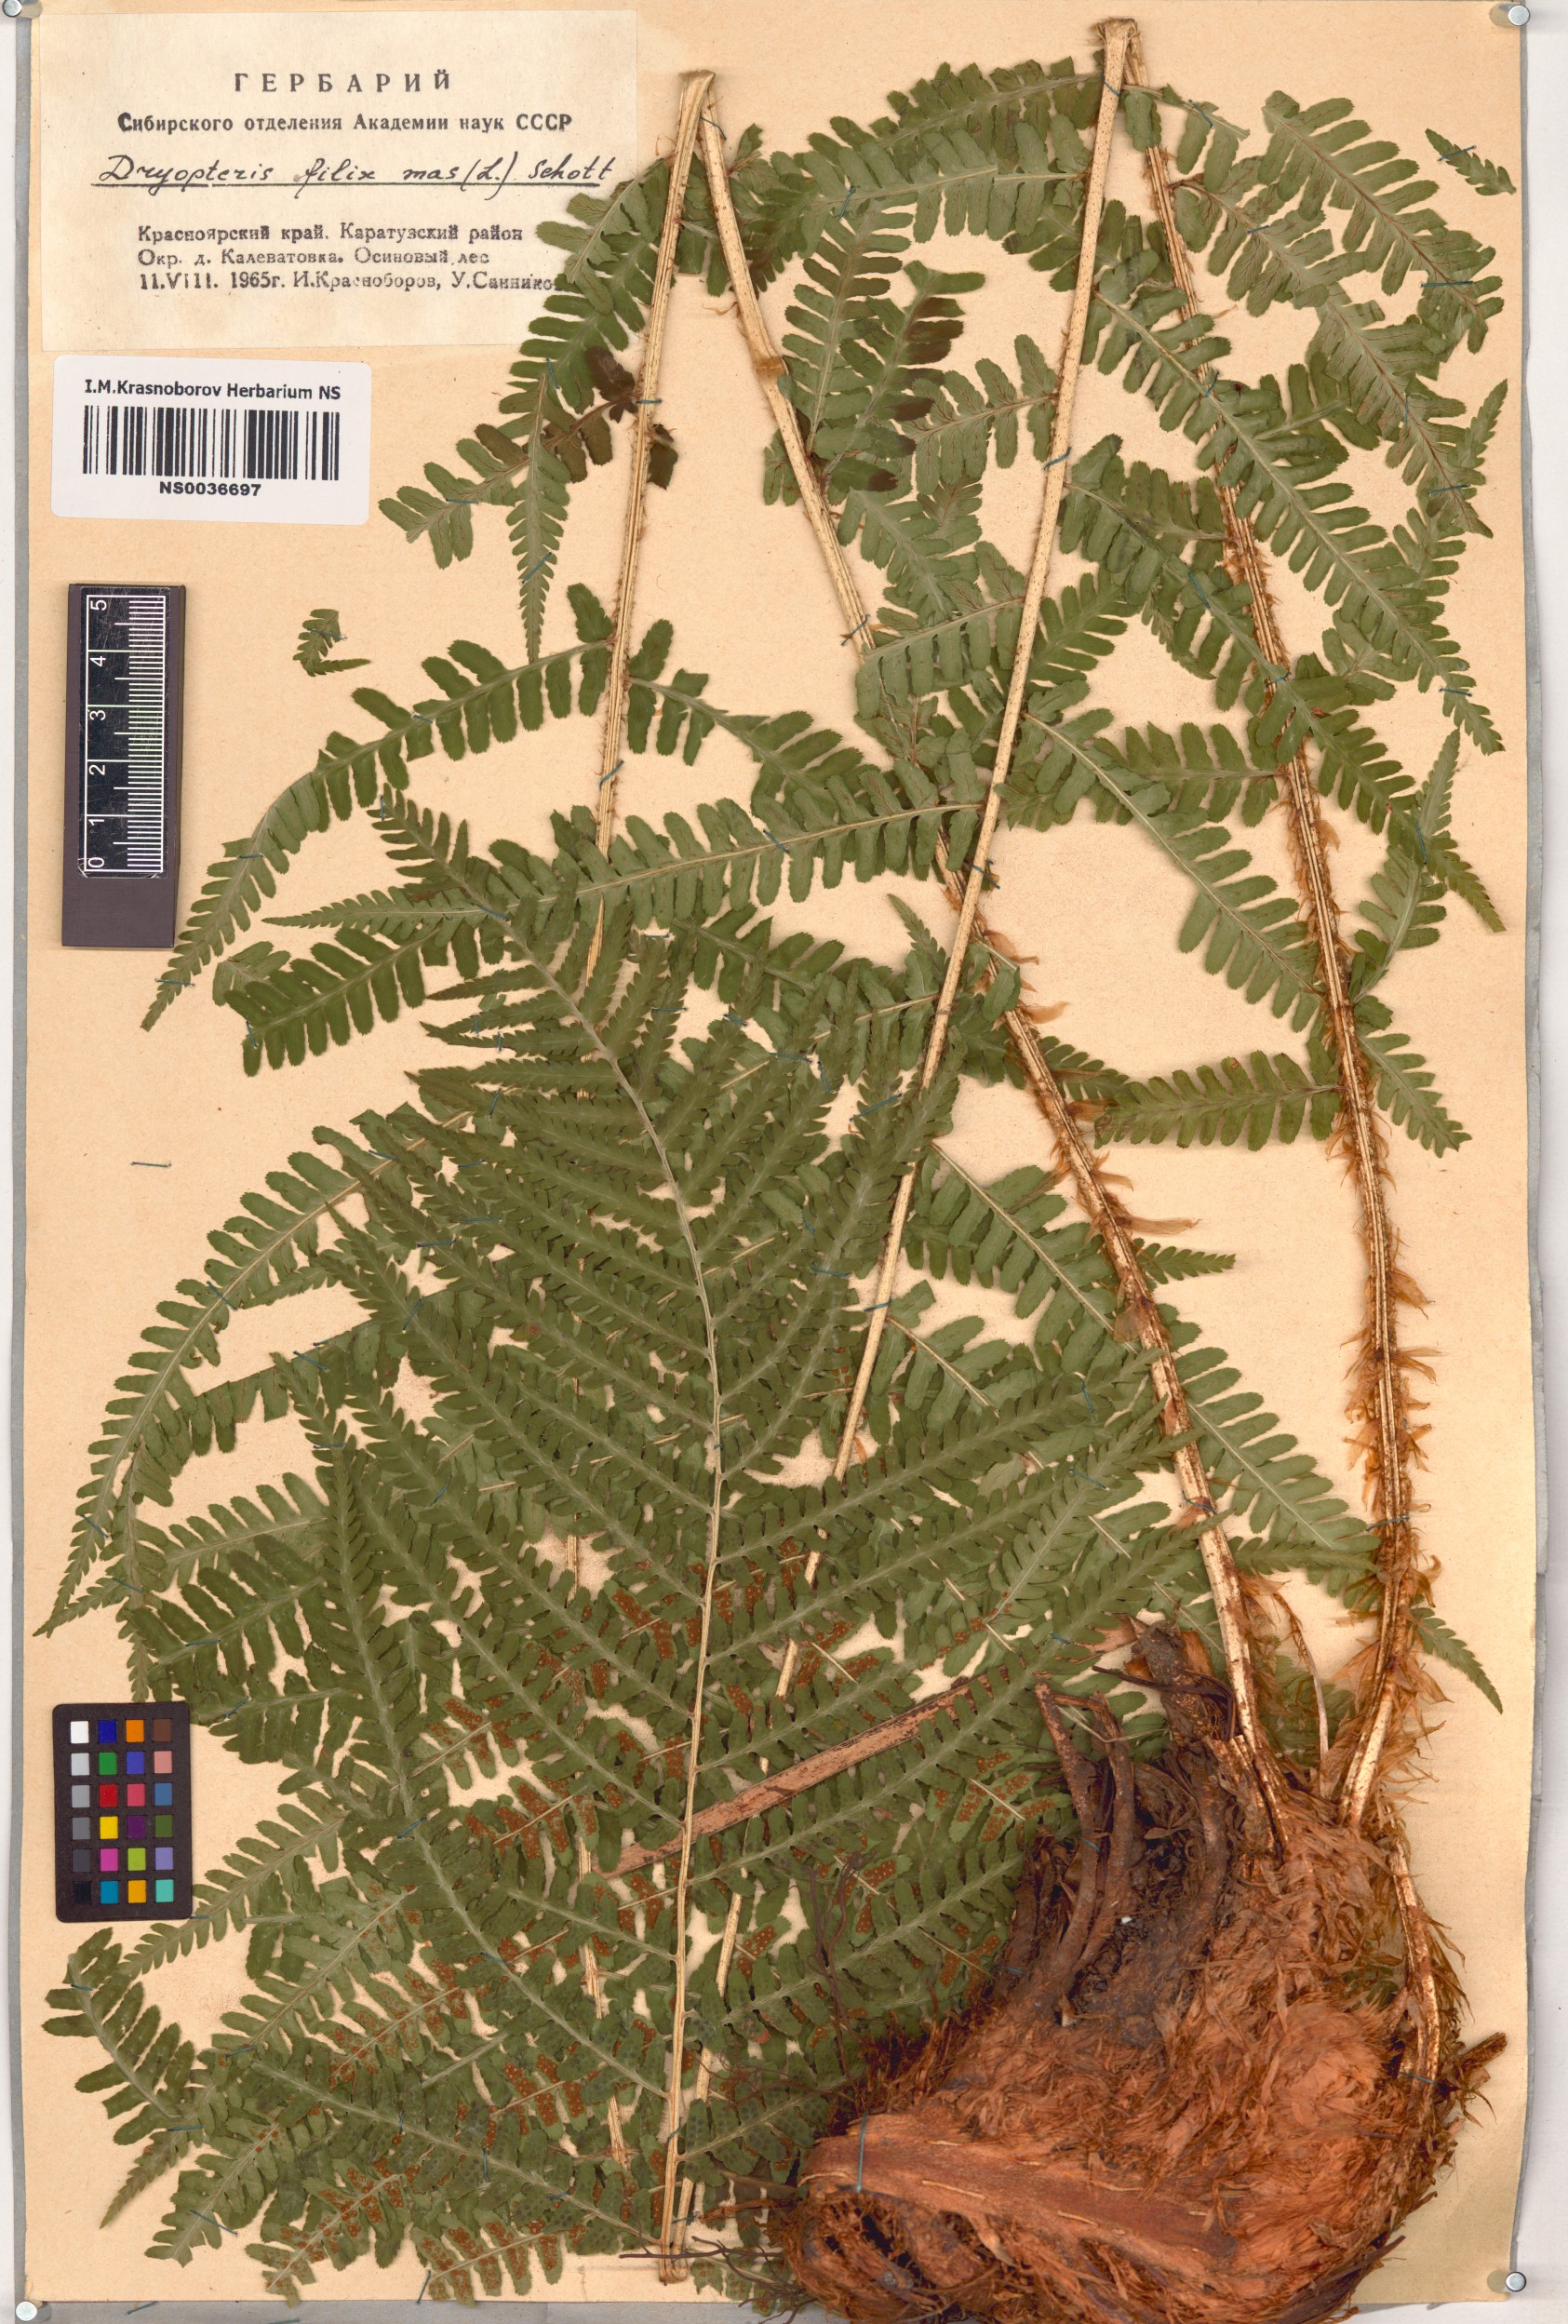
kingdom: Plantae
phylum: Tracheophyta
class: Polypodiopsida
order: Polypodiales
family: Dryopteridaceae
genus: Dryopteris
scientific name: Dryopteris filix-mas
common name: Male fern
